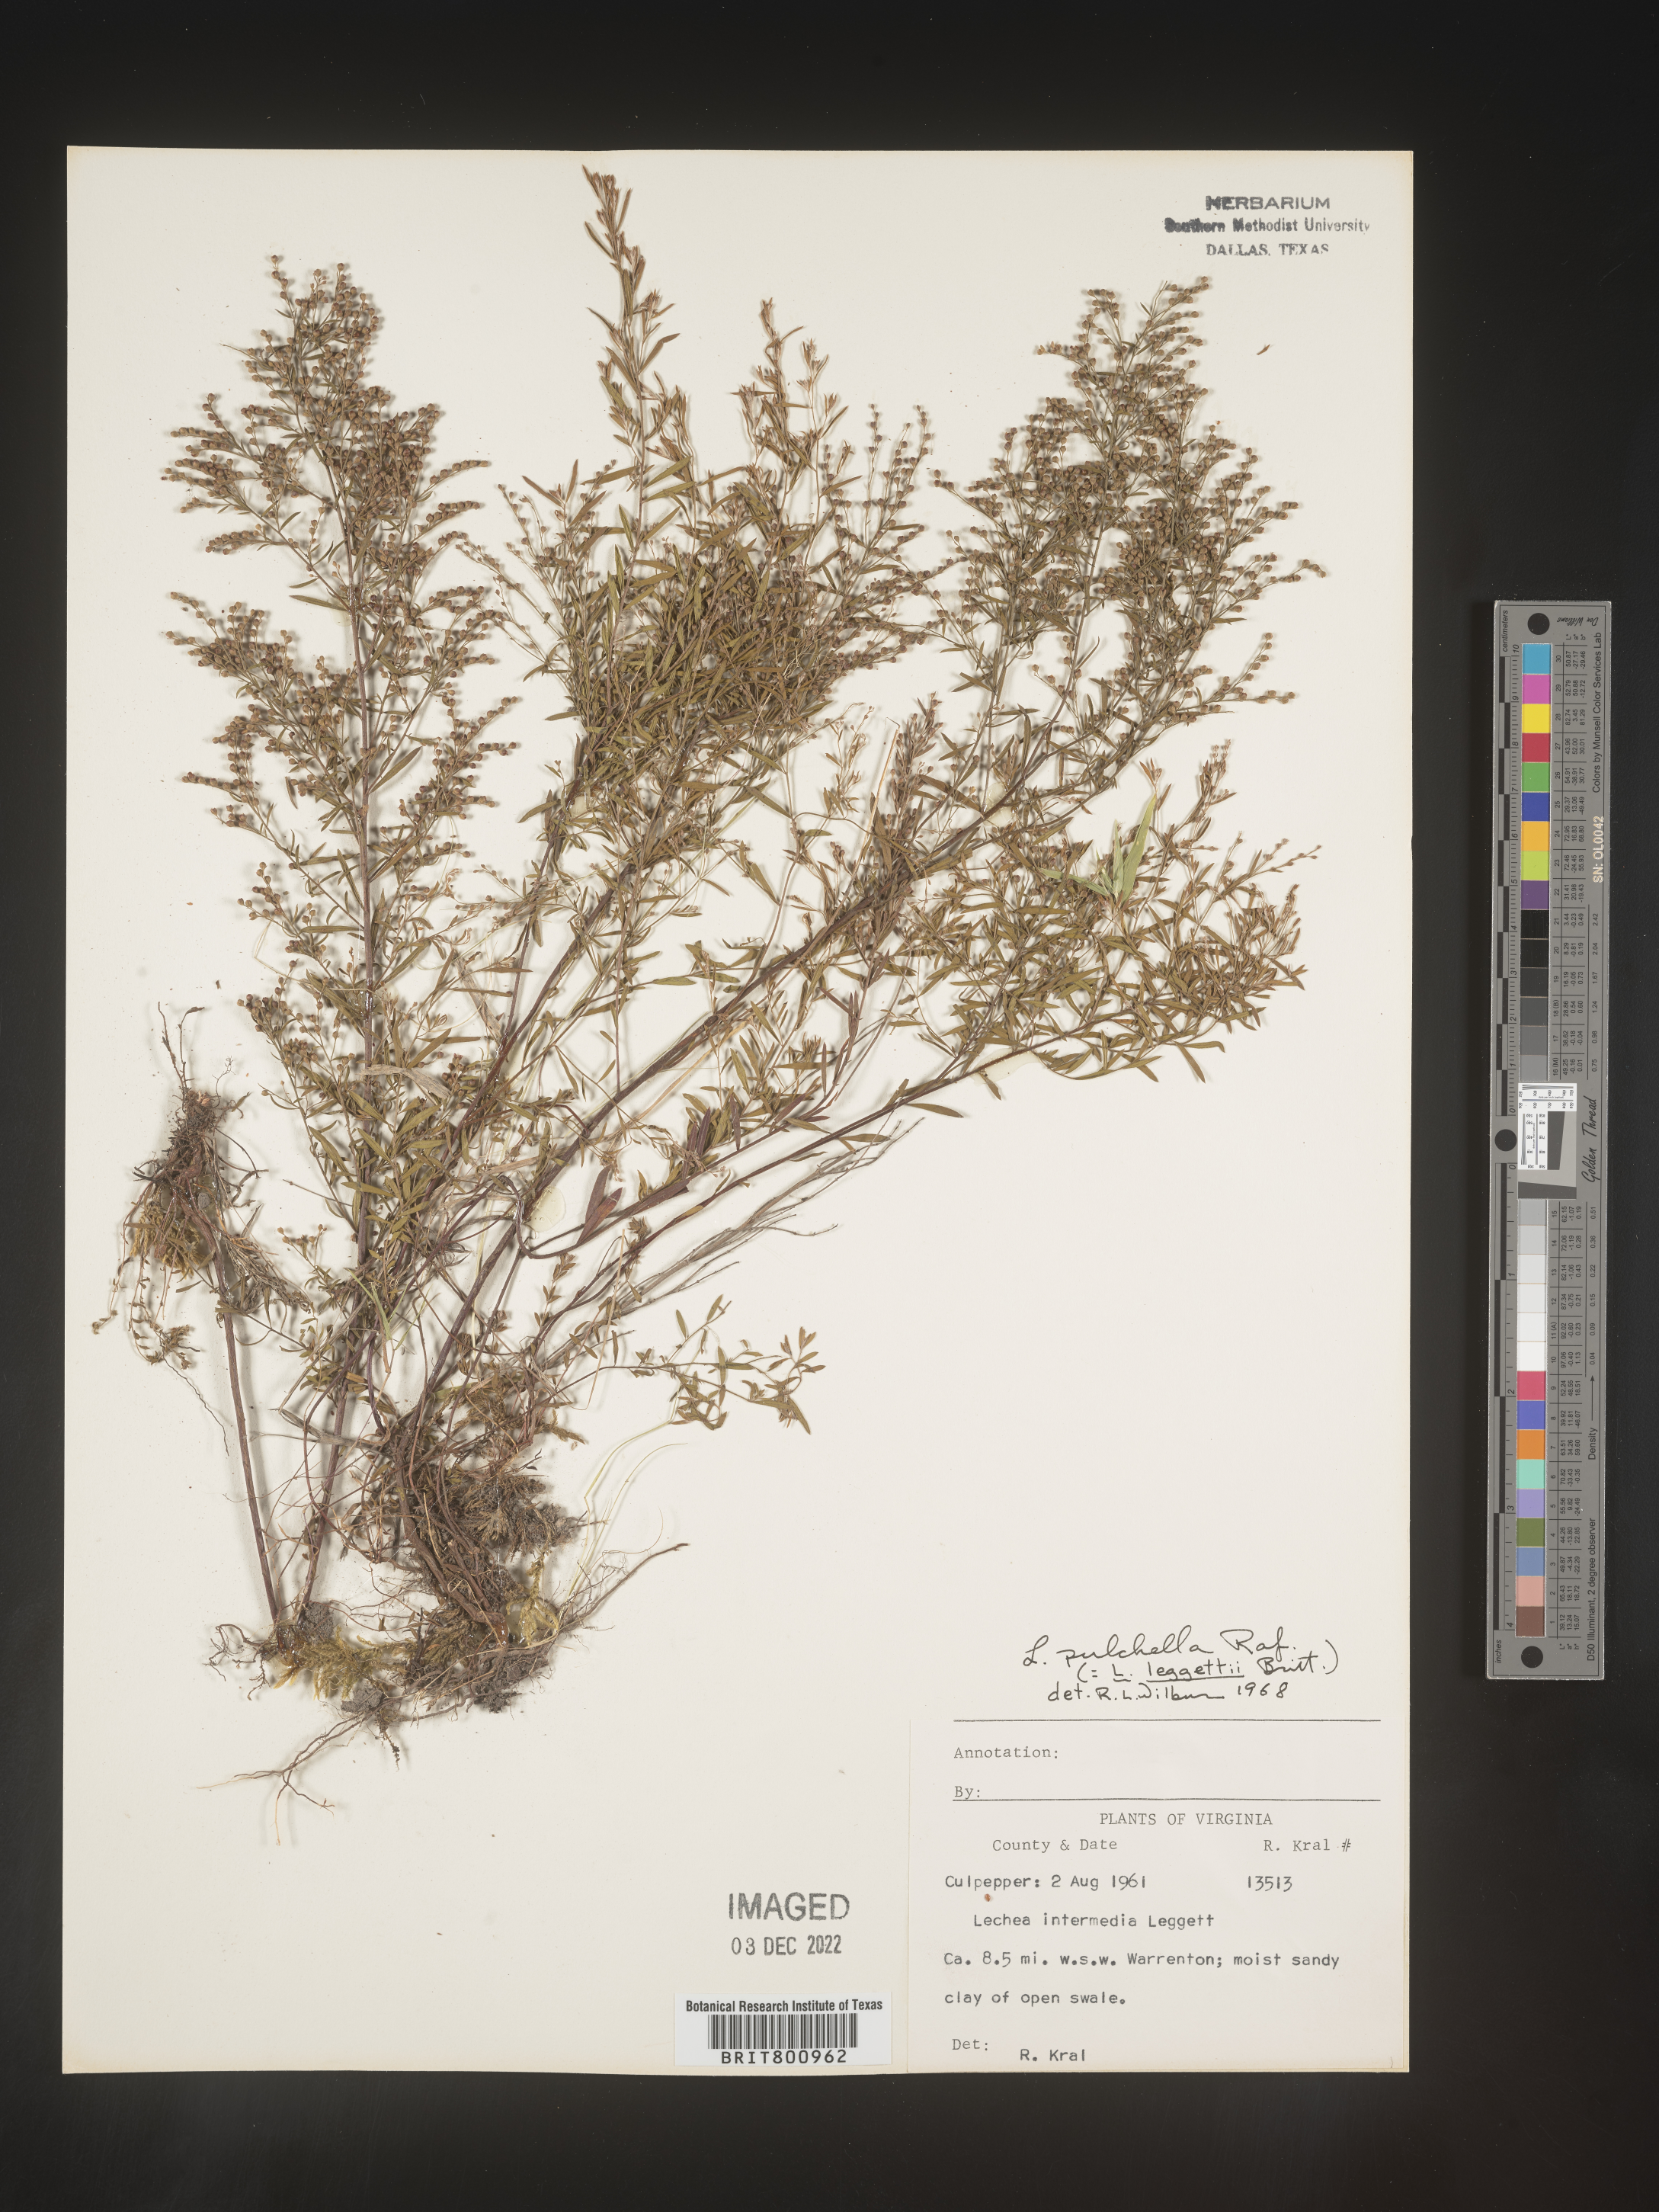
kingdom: Plantae
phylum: Tracheophyta
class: Magnoliopsida
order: Malvales
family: Cistaceae
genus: Lechea
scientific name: Lechea pulchella
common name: Leggett's pinweed
